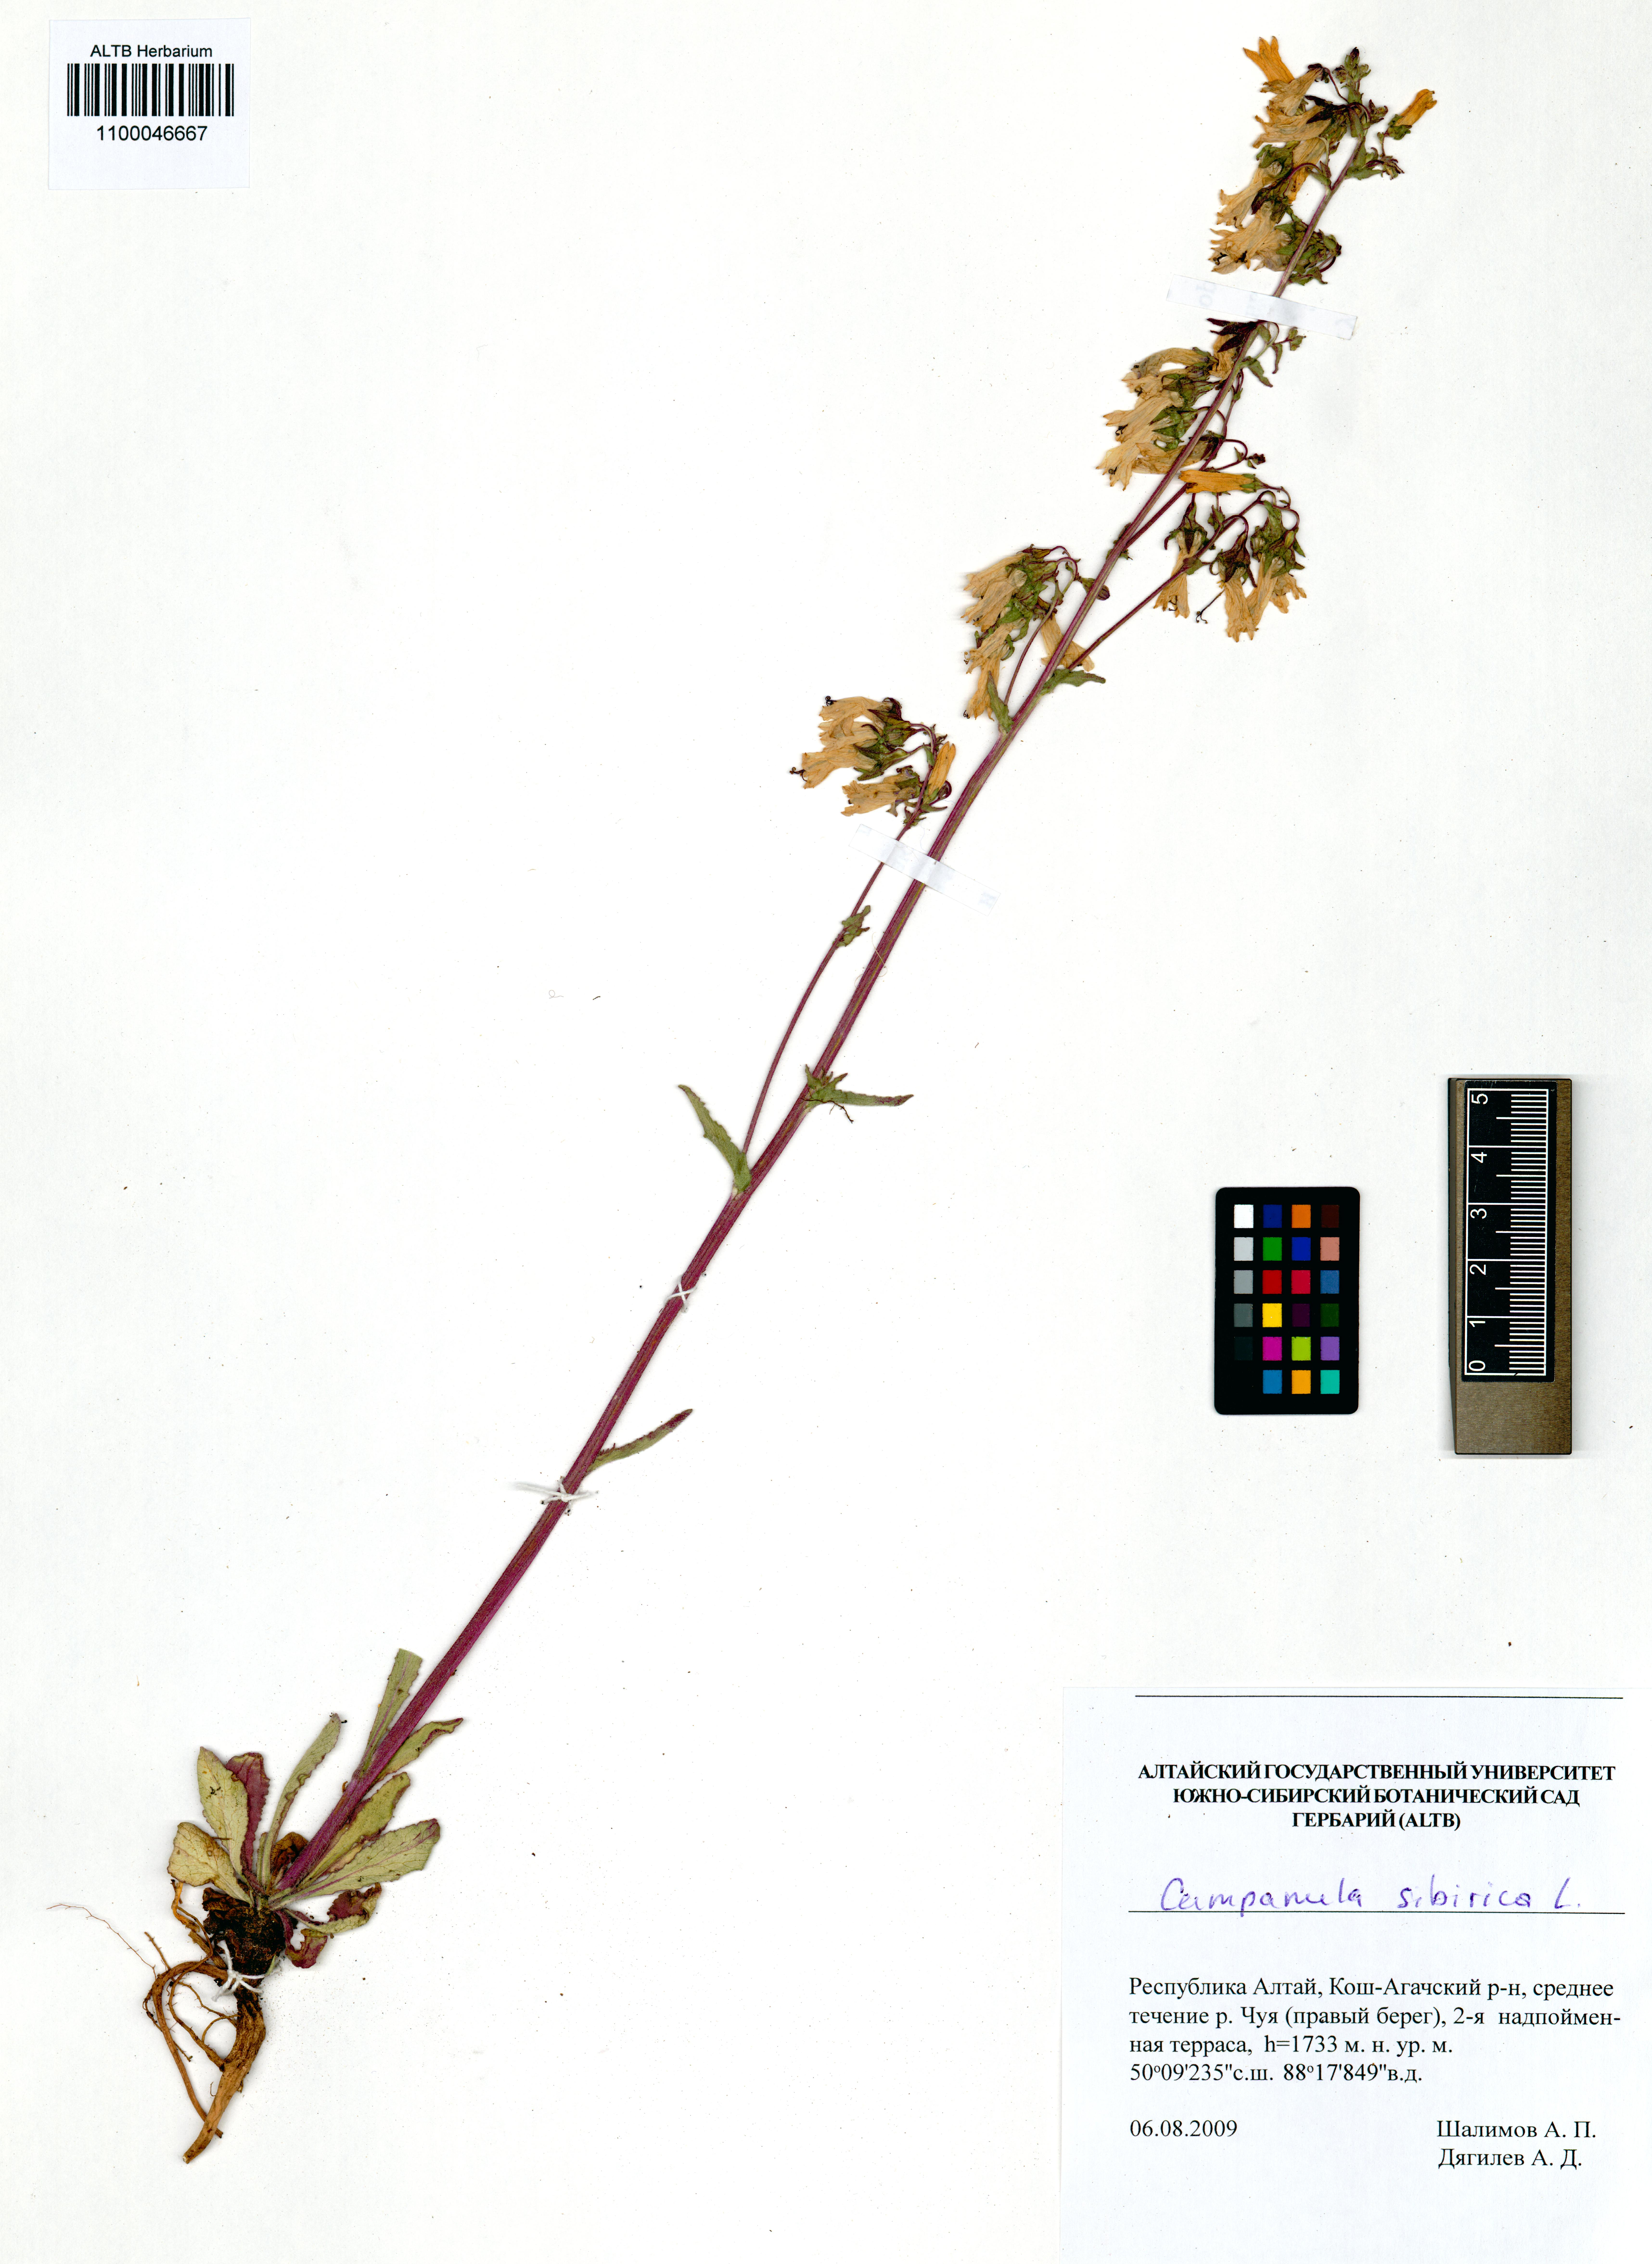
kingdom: Plantae
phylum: Tracheophyta
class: Magnoliopsida
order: Asterales
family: Campanulaceae
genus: Campanula
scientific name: Campanula sibirica
